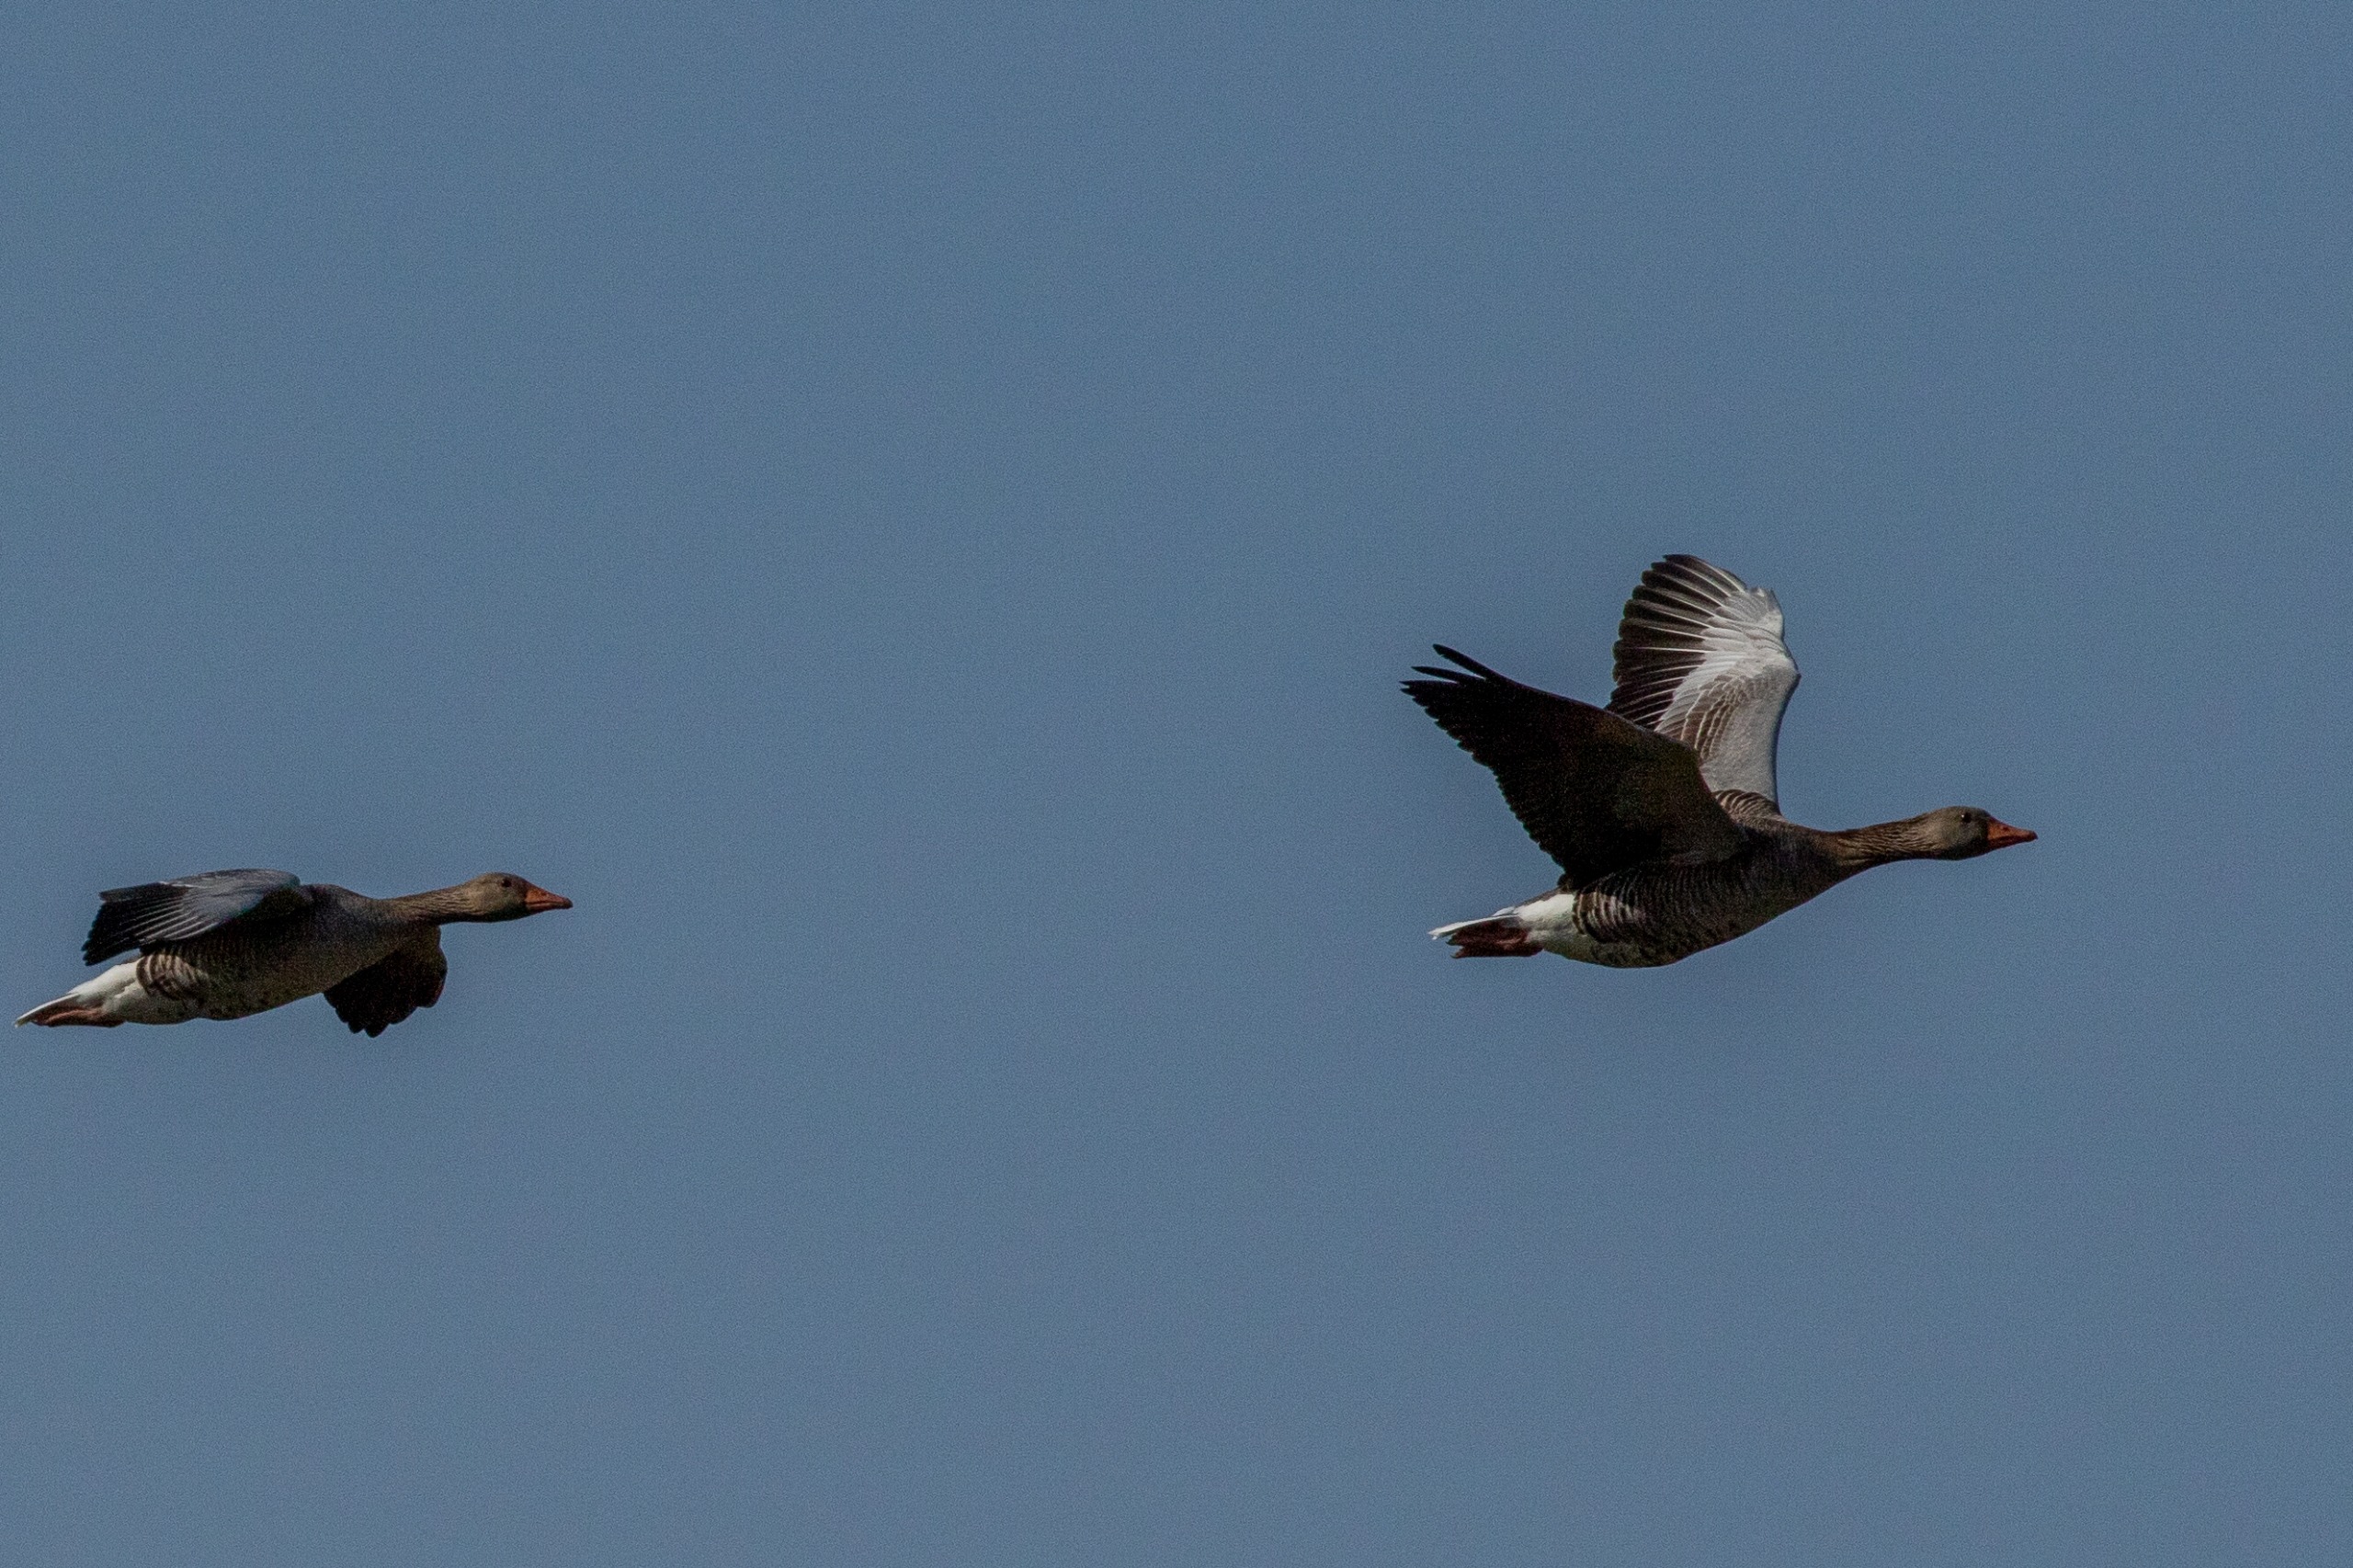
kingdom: Animalia
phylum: Chordata
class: Aves
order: Anseriformes
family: Anatidae
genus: Anser
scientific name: Anser anser
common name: Grågås
